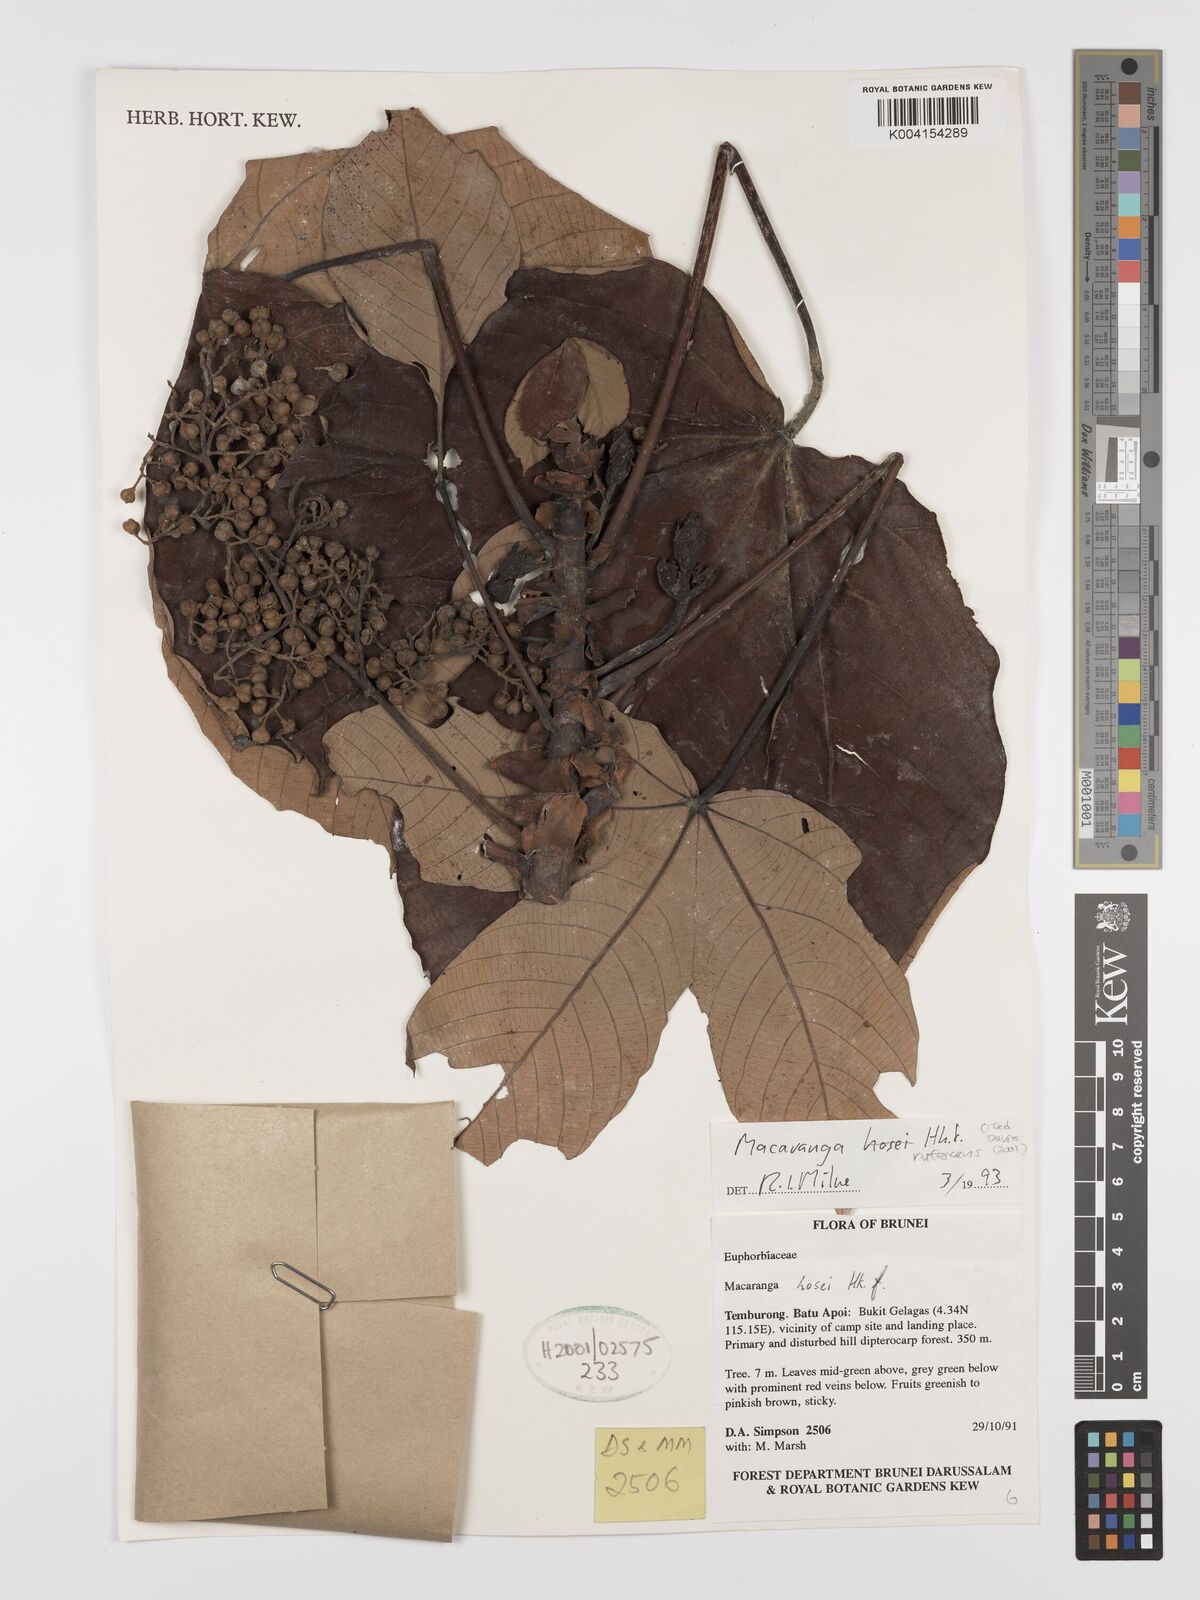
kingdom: Plantae
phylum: Tracheophyta
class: Magnoliopsida
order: Malpighiales
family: Euphorbiaceae
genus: Macaranga
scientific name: Macaranga rufescens
